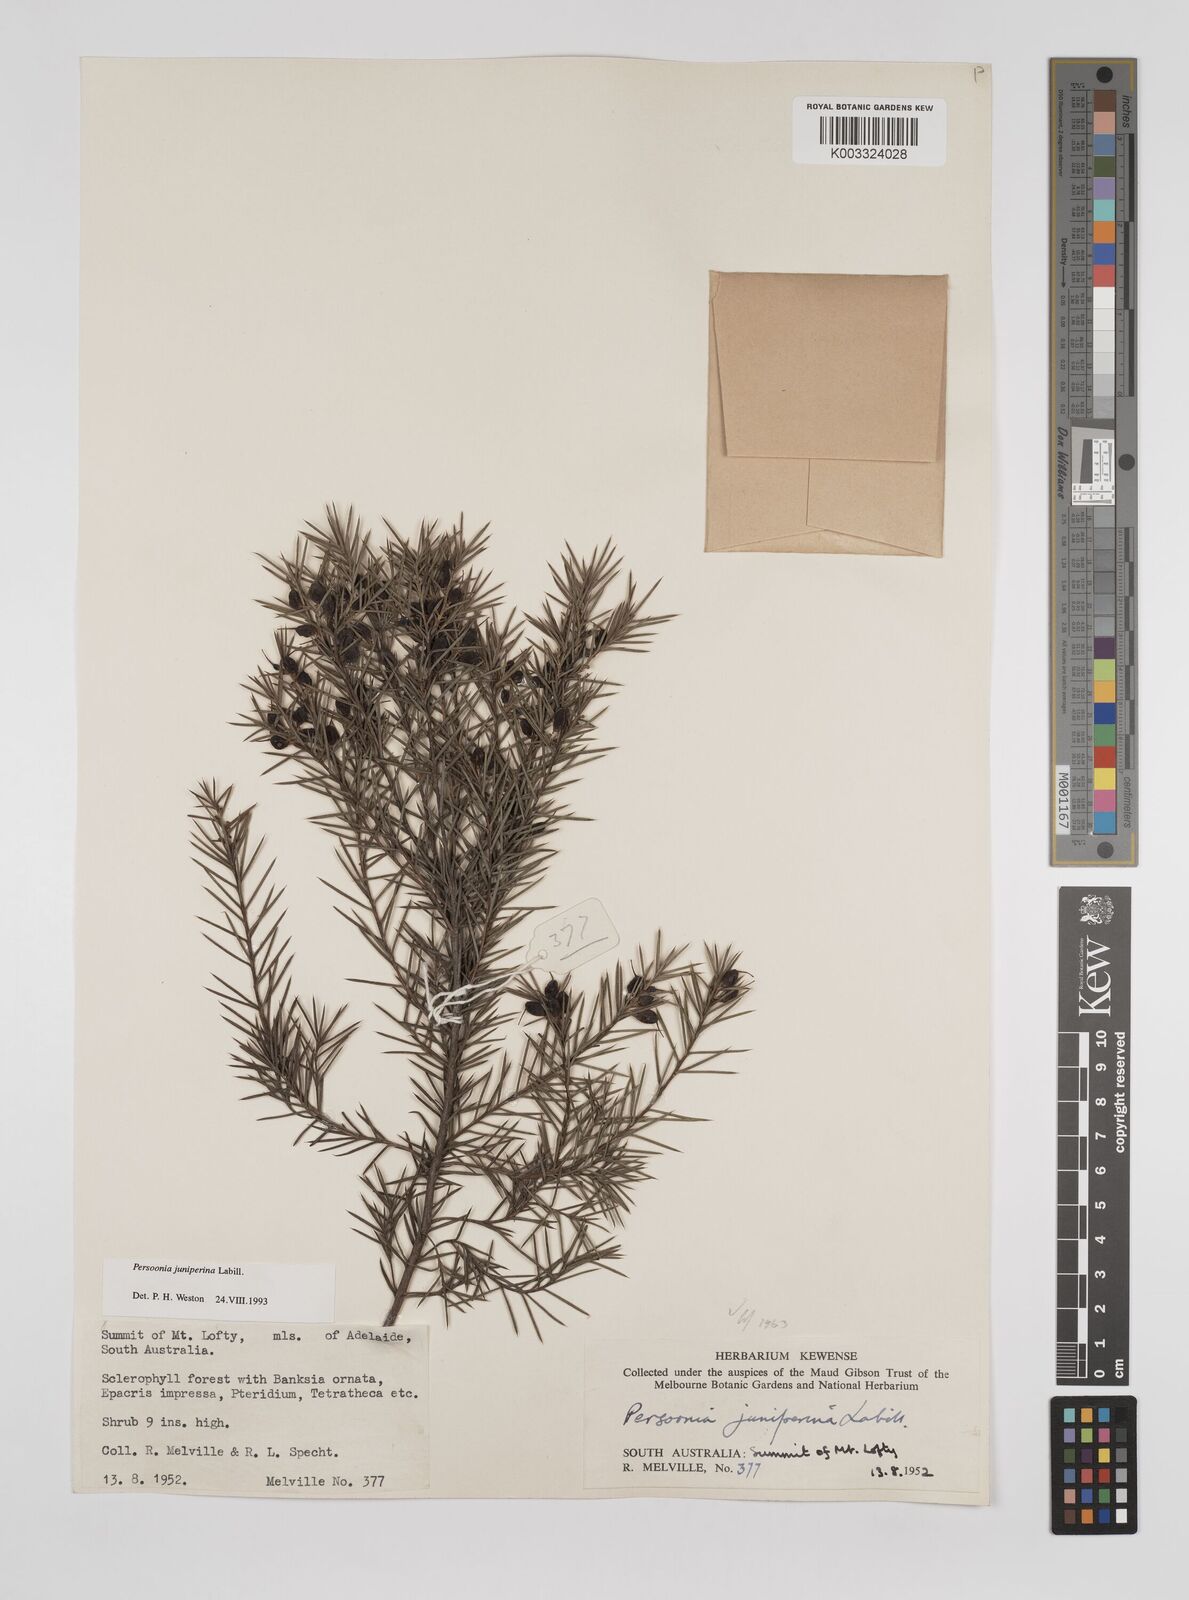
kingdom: Plantae
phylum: Tracheophyta
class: Magnoliopsida
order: Proteales
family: Proteaceae
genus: Persoonia
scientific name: Persoonia juniperina
